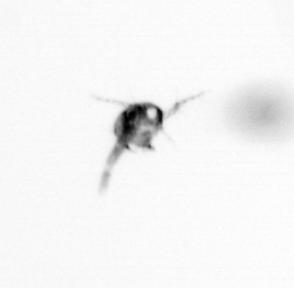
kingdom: Animalia
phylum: Arthropoda
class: Copepoda
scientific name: Copepoda
